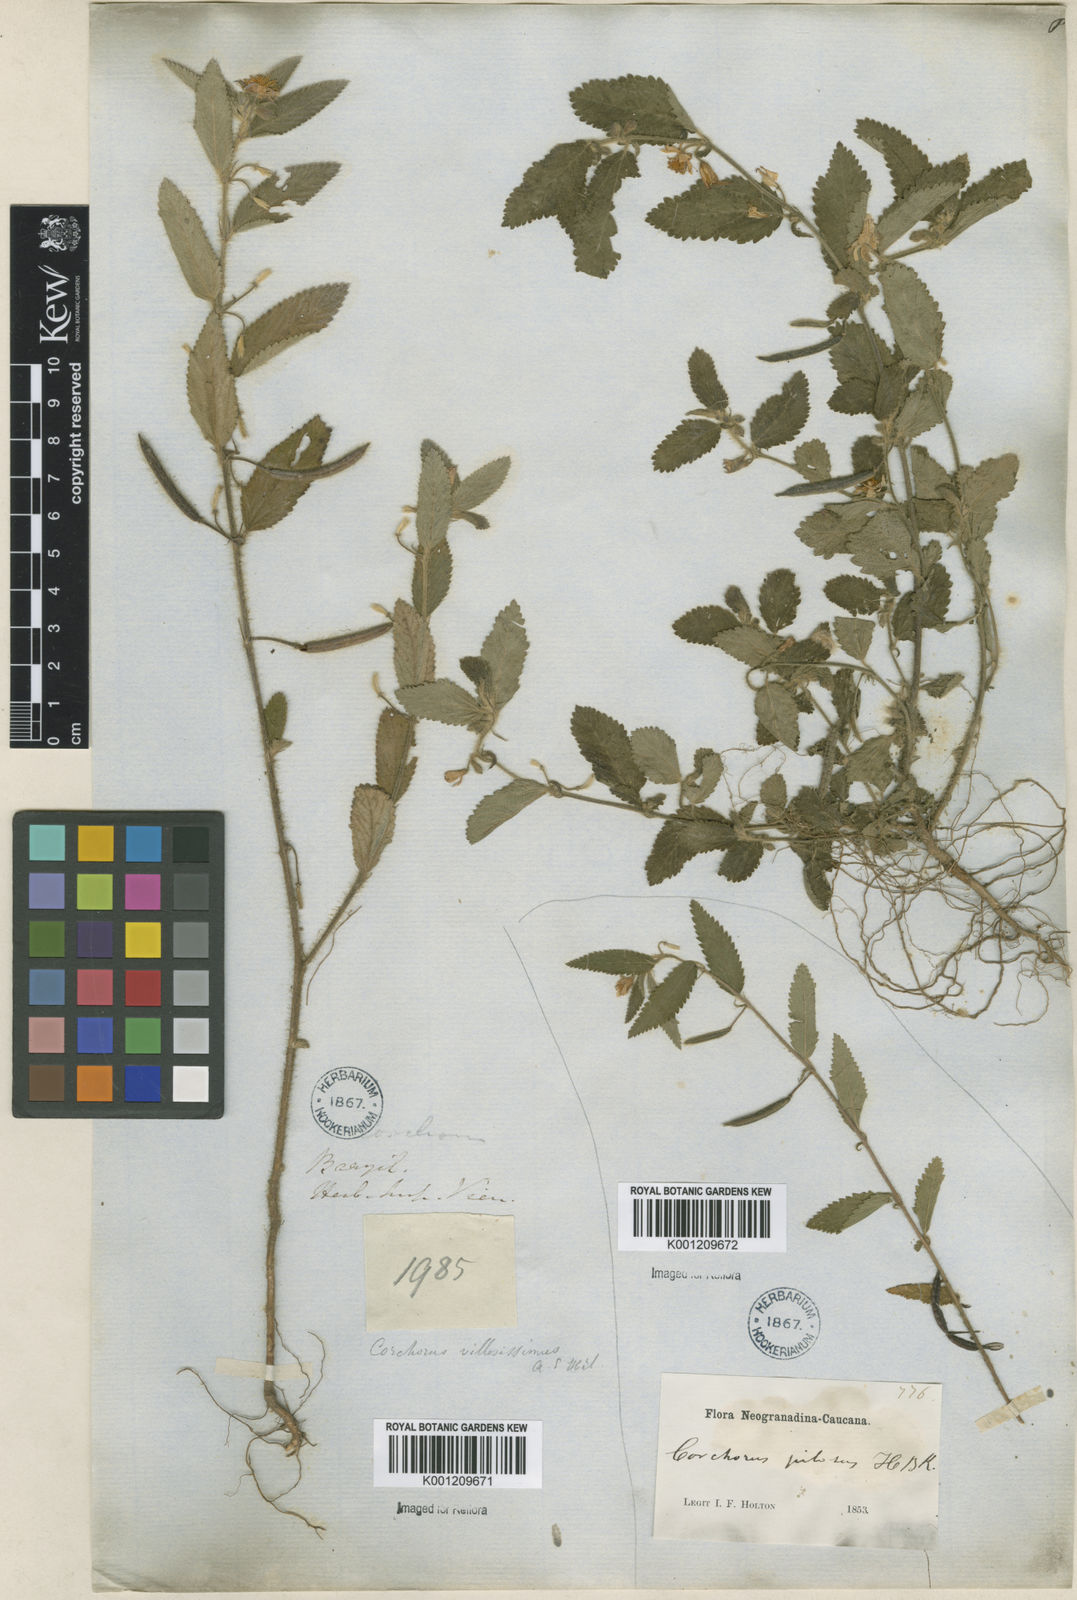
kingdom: Plantae
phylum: Tracheophyta
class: Magnoliopsida
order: Malvales
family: Malvaceae
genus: Corchorus
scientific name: Corchorus hirtus
